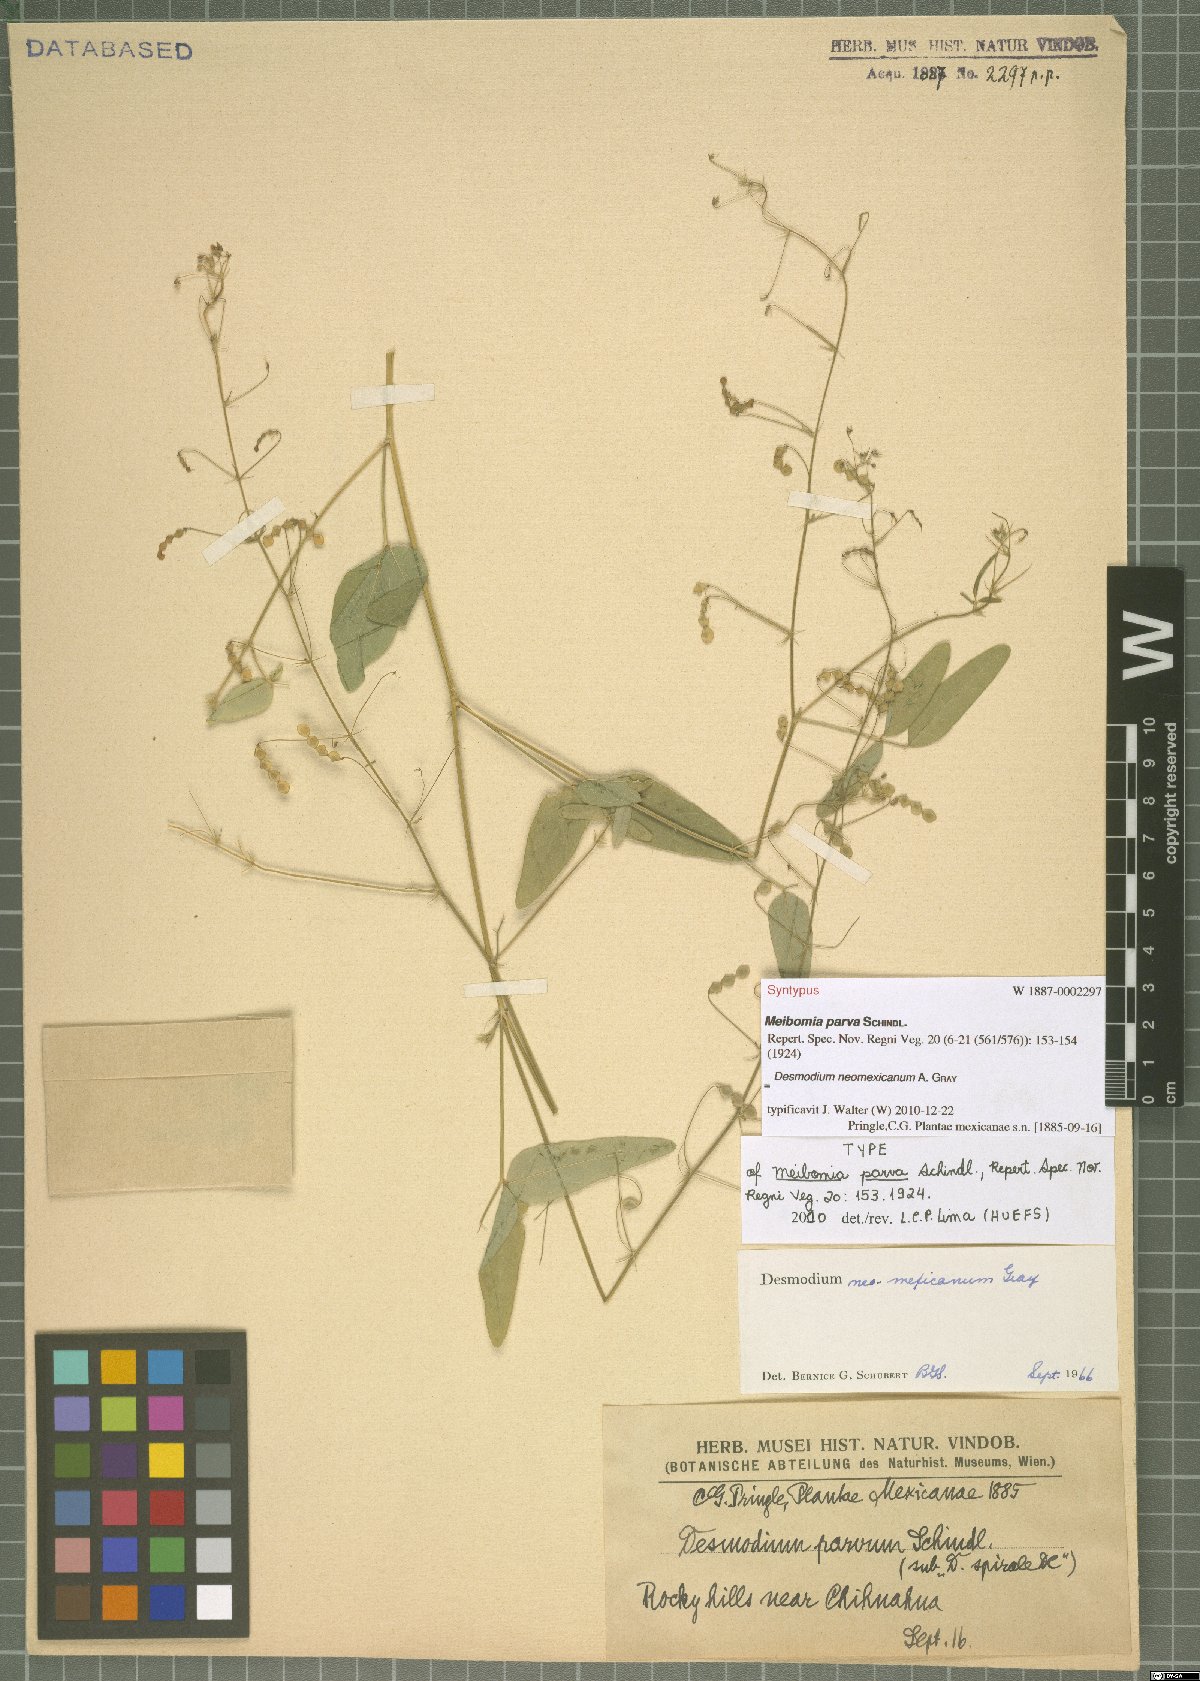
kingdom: Plantae
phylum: Tracheophyta
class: Magnoliopsida
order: Fabales
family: Fabaceae
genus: Desmodium
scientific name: Desmodium procumbens
